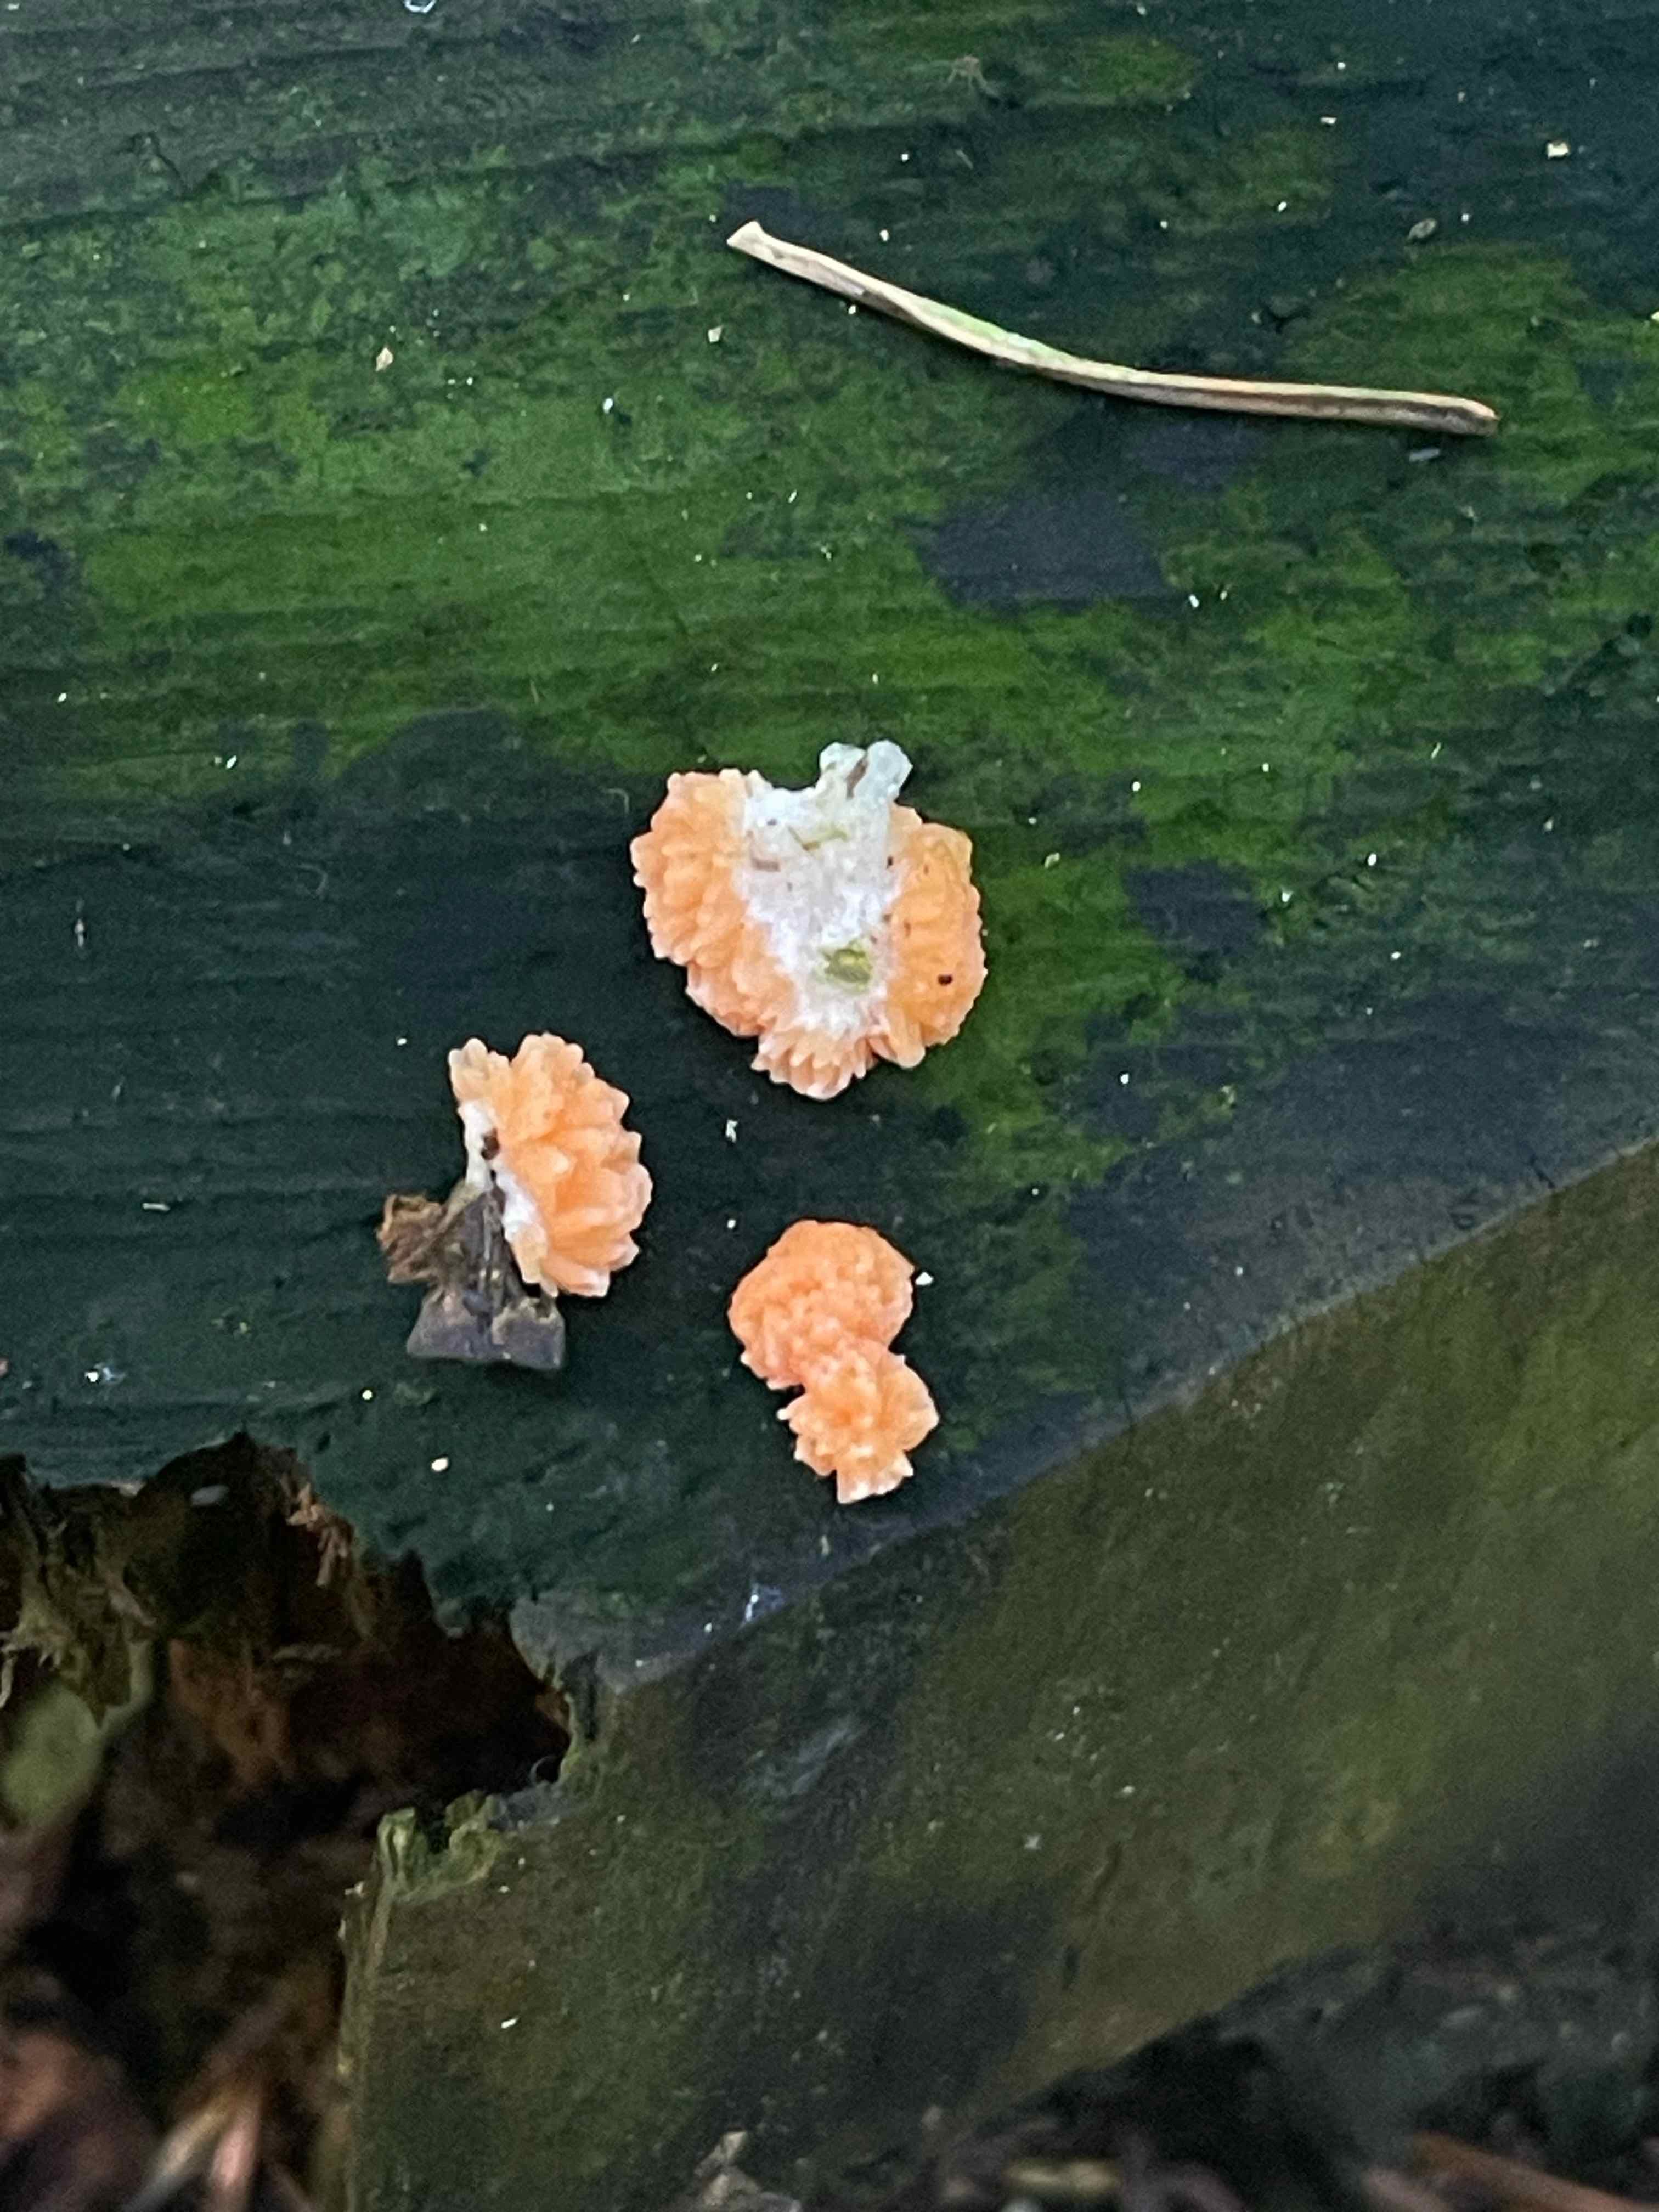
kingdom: Protozoa
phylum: Mycetozoa
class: Myxomycetes
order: Cribrariales
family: Tubiferaceae
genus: Tubifera
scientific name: Tubifera
